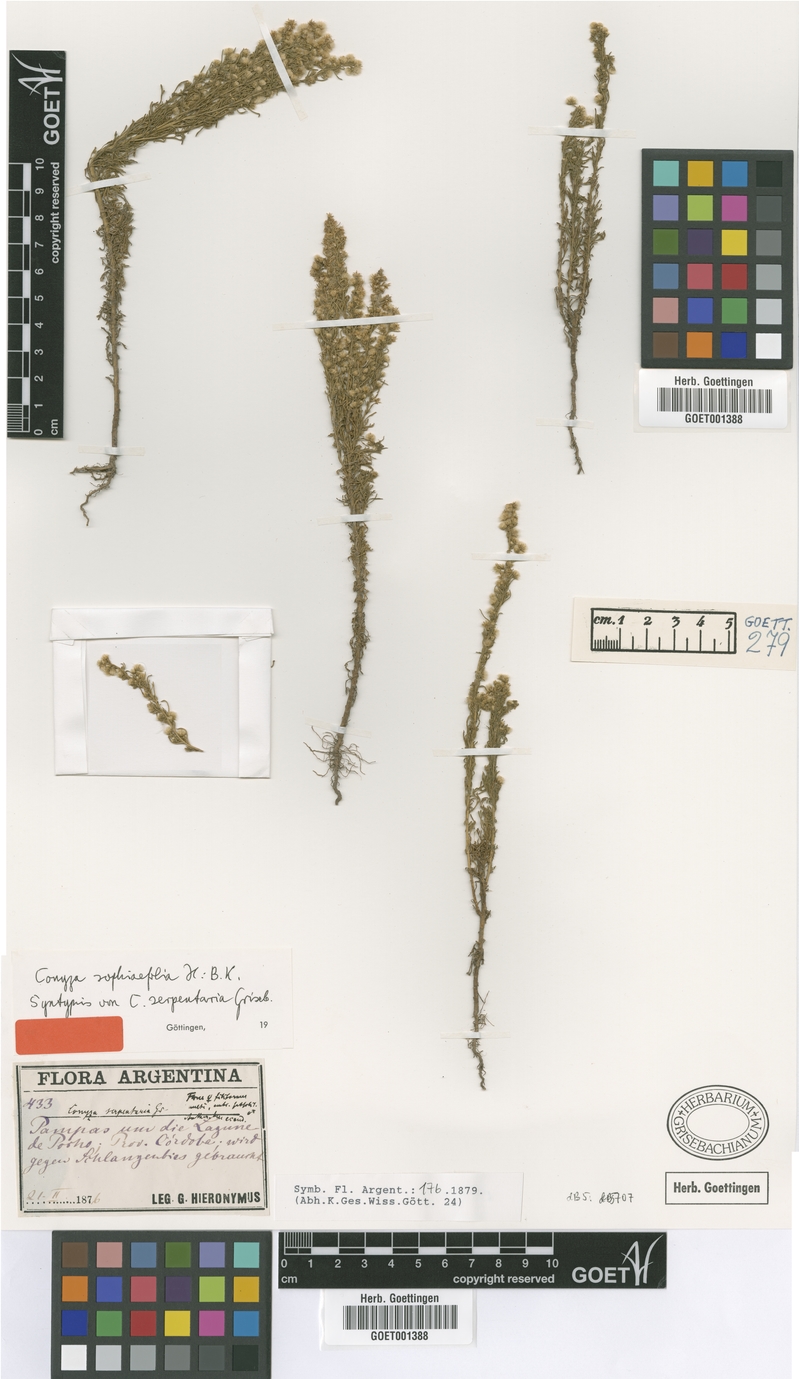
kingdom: Plantae
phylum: Tracheophyta
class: Magnoliopsida
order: Asterales
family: Asteraceae
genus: Laennecia
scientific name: Laennecia sophiifolia
